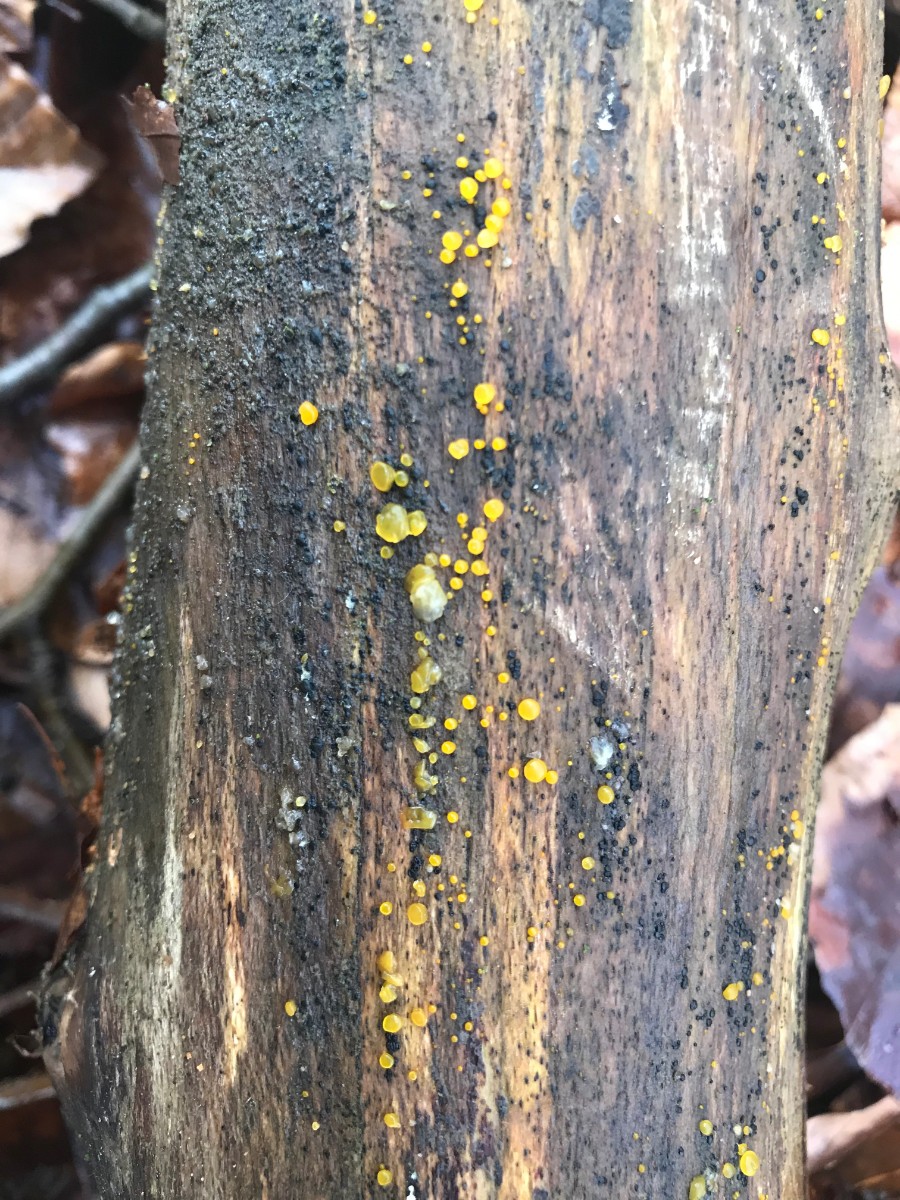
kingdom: Fungi
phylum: Basidiomycota
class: Dacrymycetes
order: Dacrymycetales
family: Dacrymycetaceae
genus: Dacrymyces
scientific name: Dacrymyces stillatus
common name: almindelig tåresvamp
